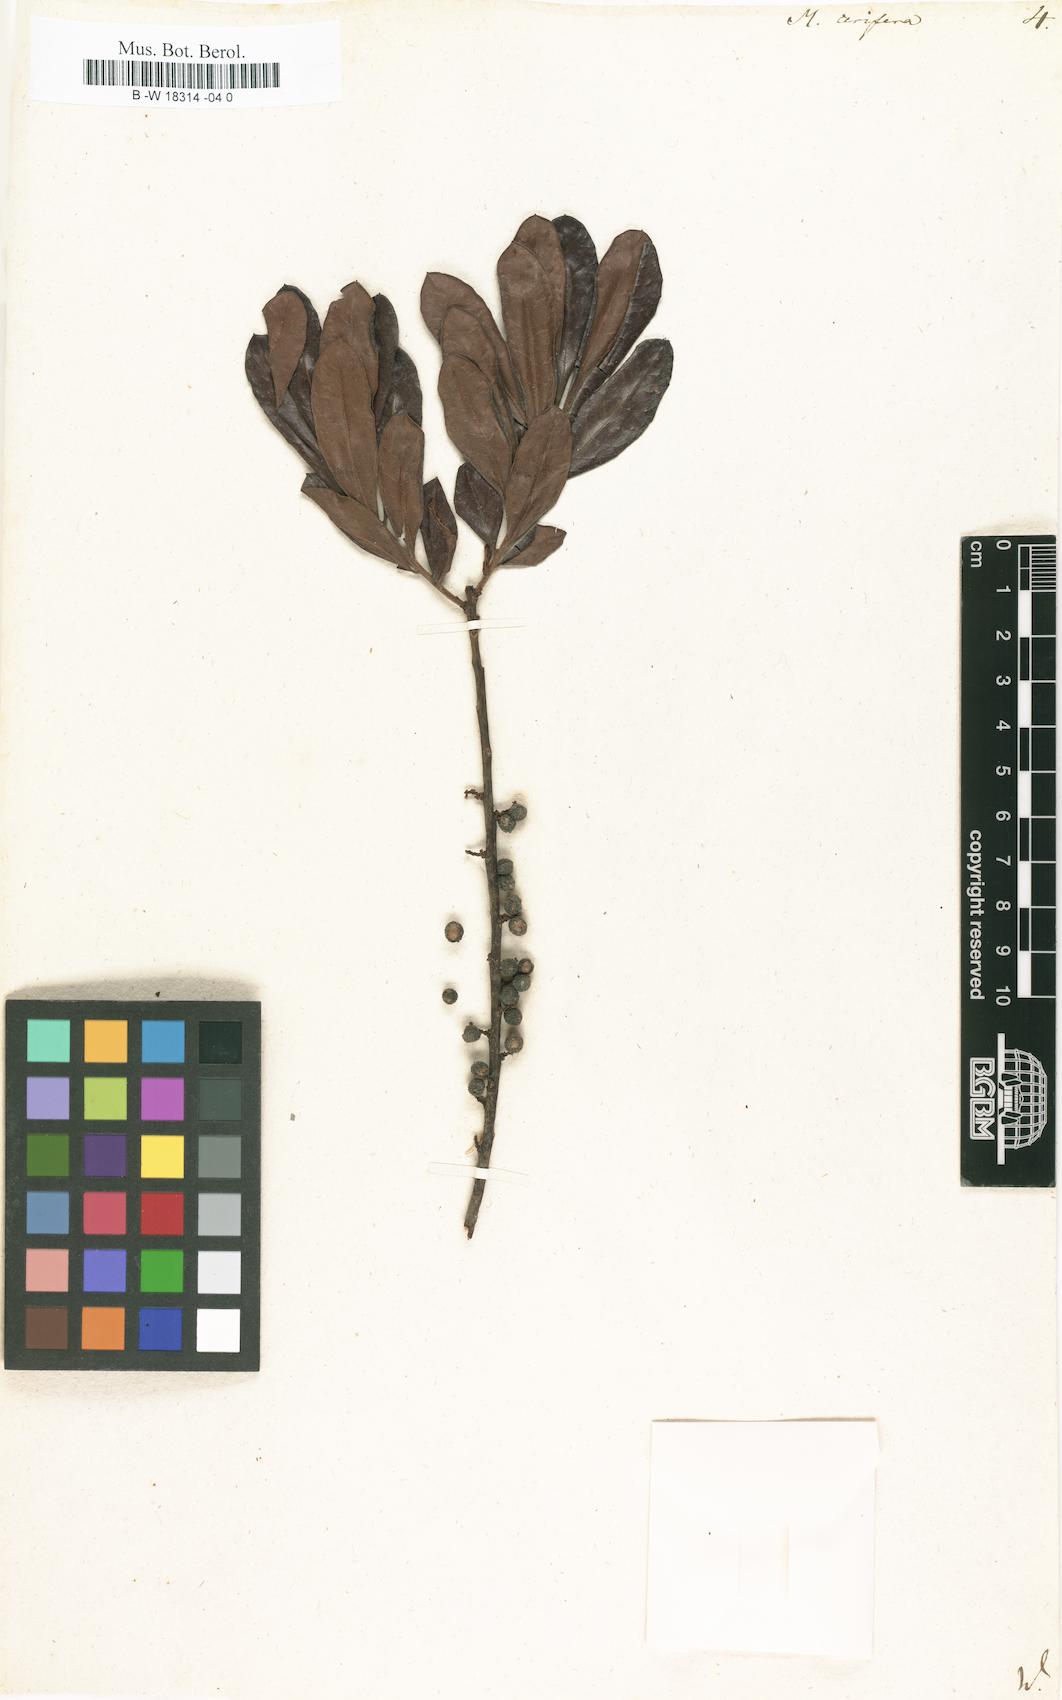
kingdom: Plantae
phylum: Tracheophyta
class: Magnoliopsida
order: Fagales
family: Myricaceae
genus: Morella
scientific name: Morella cerifera
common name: Wax myrtle
